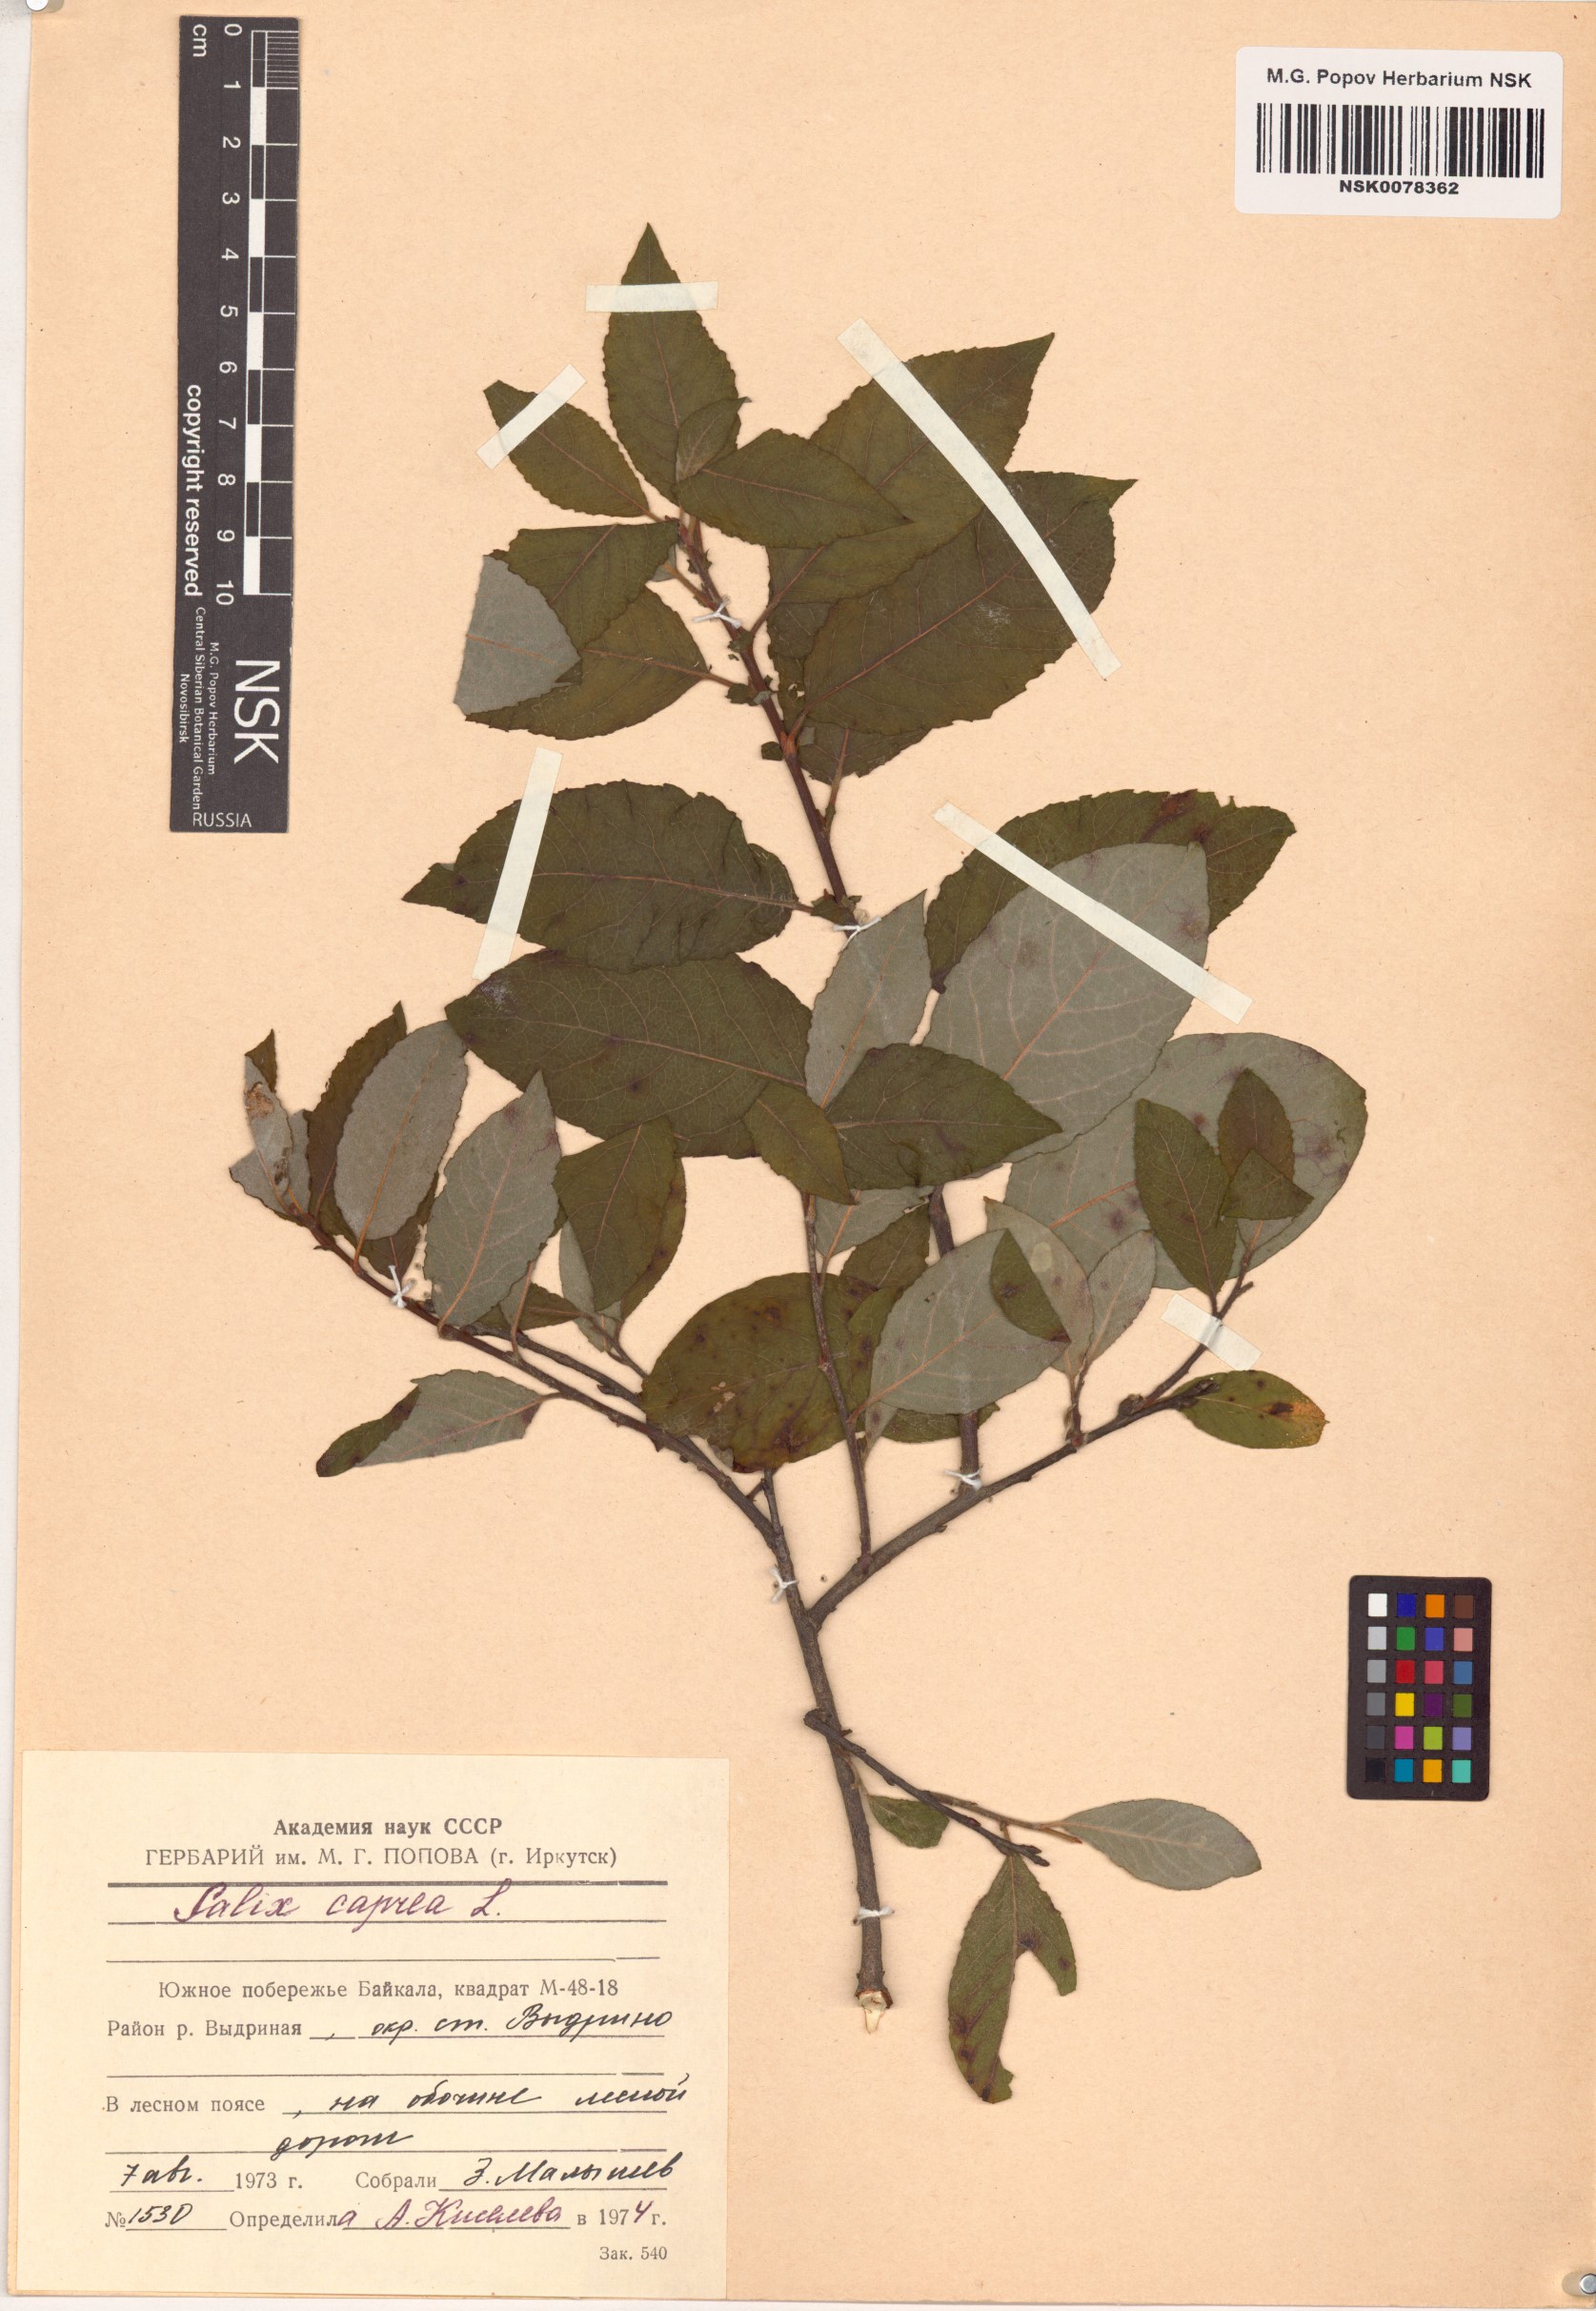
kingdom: Plantae
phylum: Tracheophyta
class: Magnoliopsida
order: Malpighiales
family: Salicaceae
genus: Salix
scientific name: Salix caprea
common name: Goat willow
